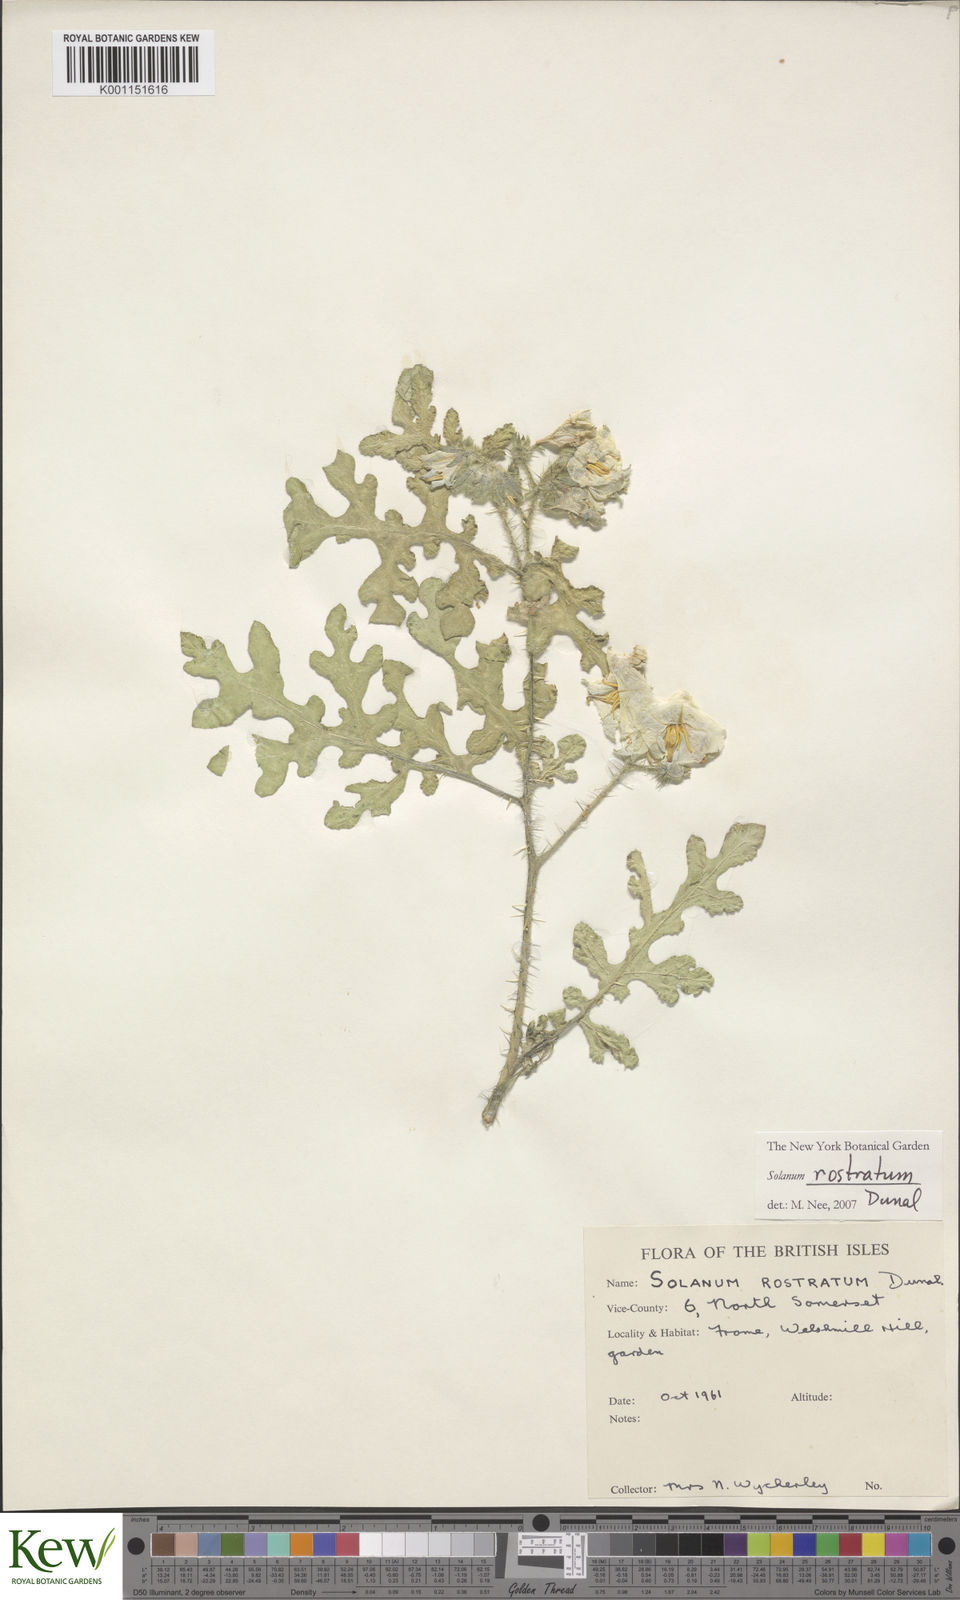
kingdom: Plantae
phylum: Tracheophyta
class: Magnoliopsida
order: Solanales
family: Solanaceae
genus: Solanum
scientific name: Solanum angustifolium
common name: Buffalobur nightshade
